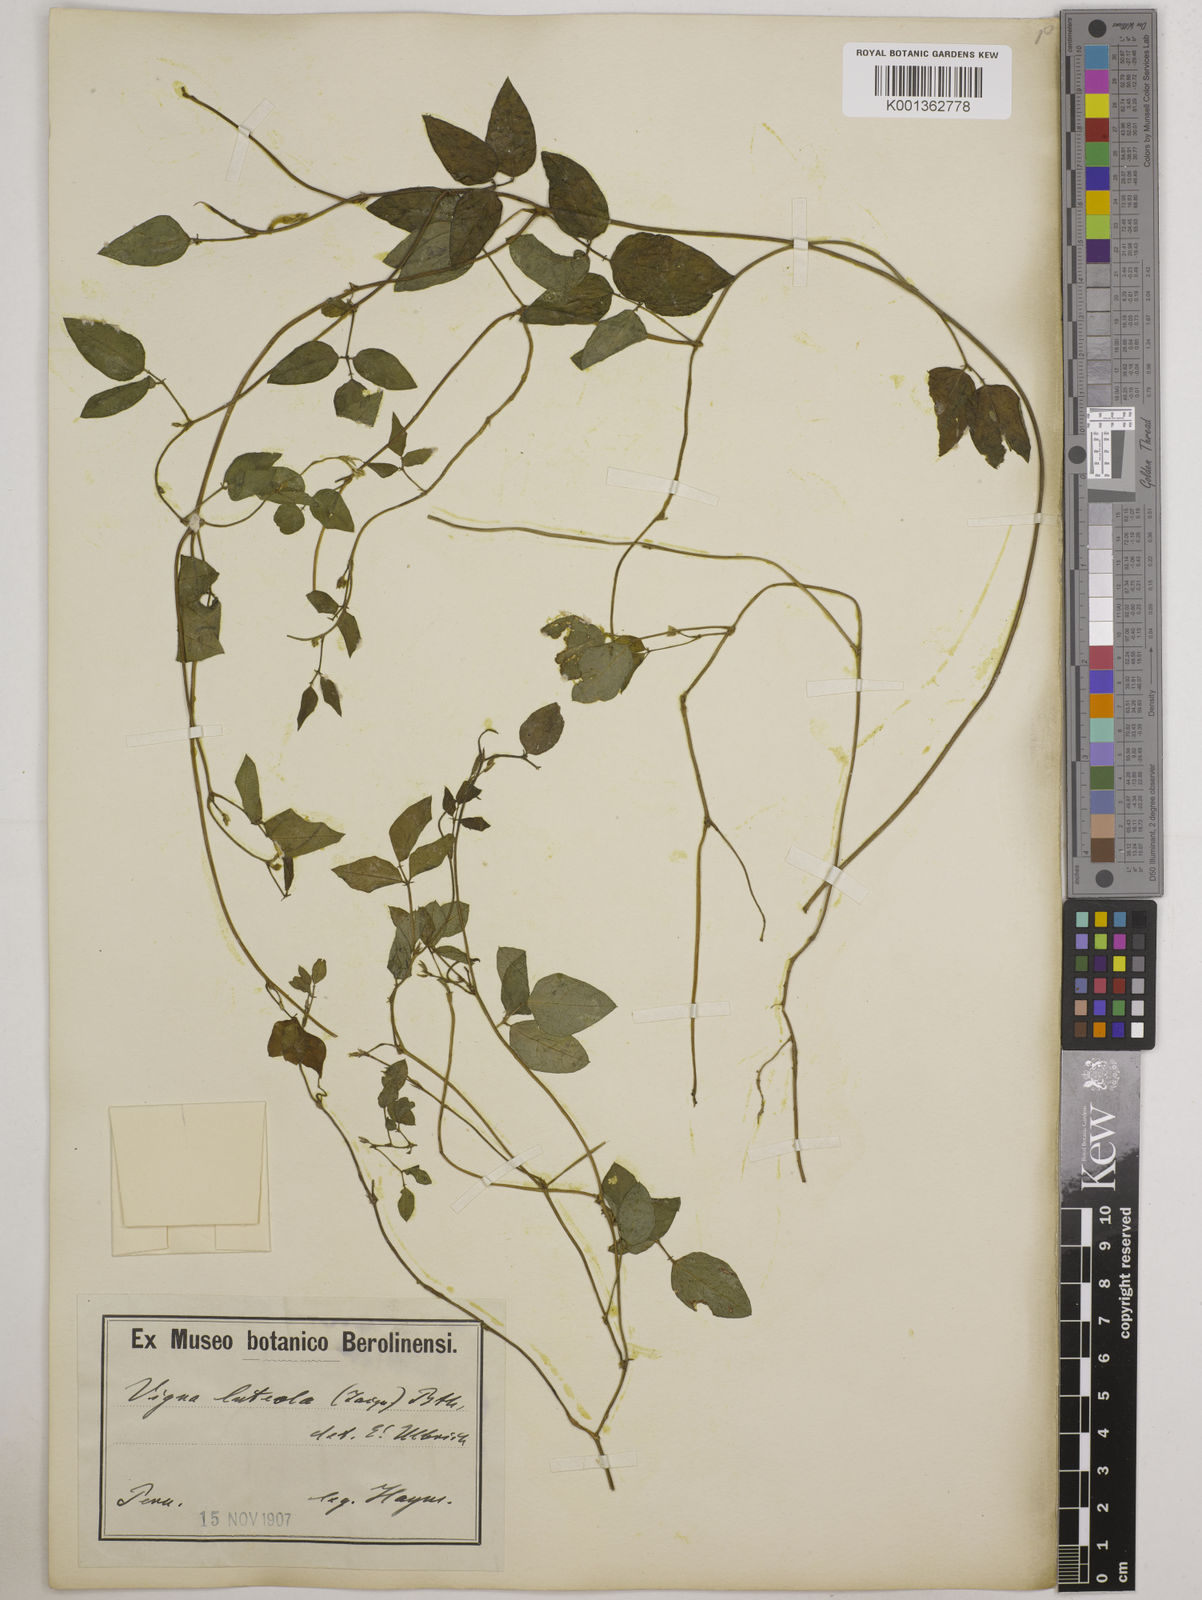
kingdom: Plantae
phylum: Tracheophyta
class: Magnoliopsida
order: Fabales
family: Fabaceae
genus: Vigna
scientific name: Vigna luteola
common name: Hairypod cowpea
